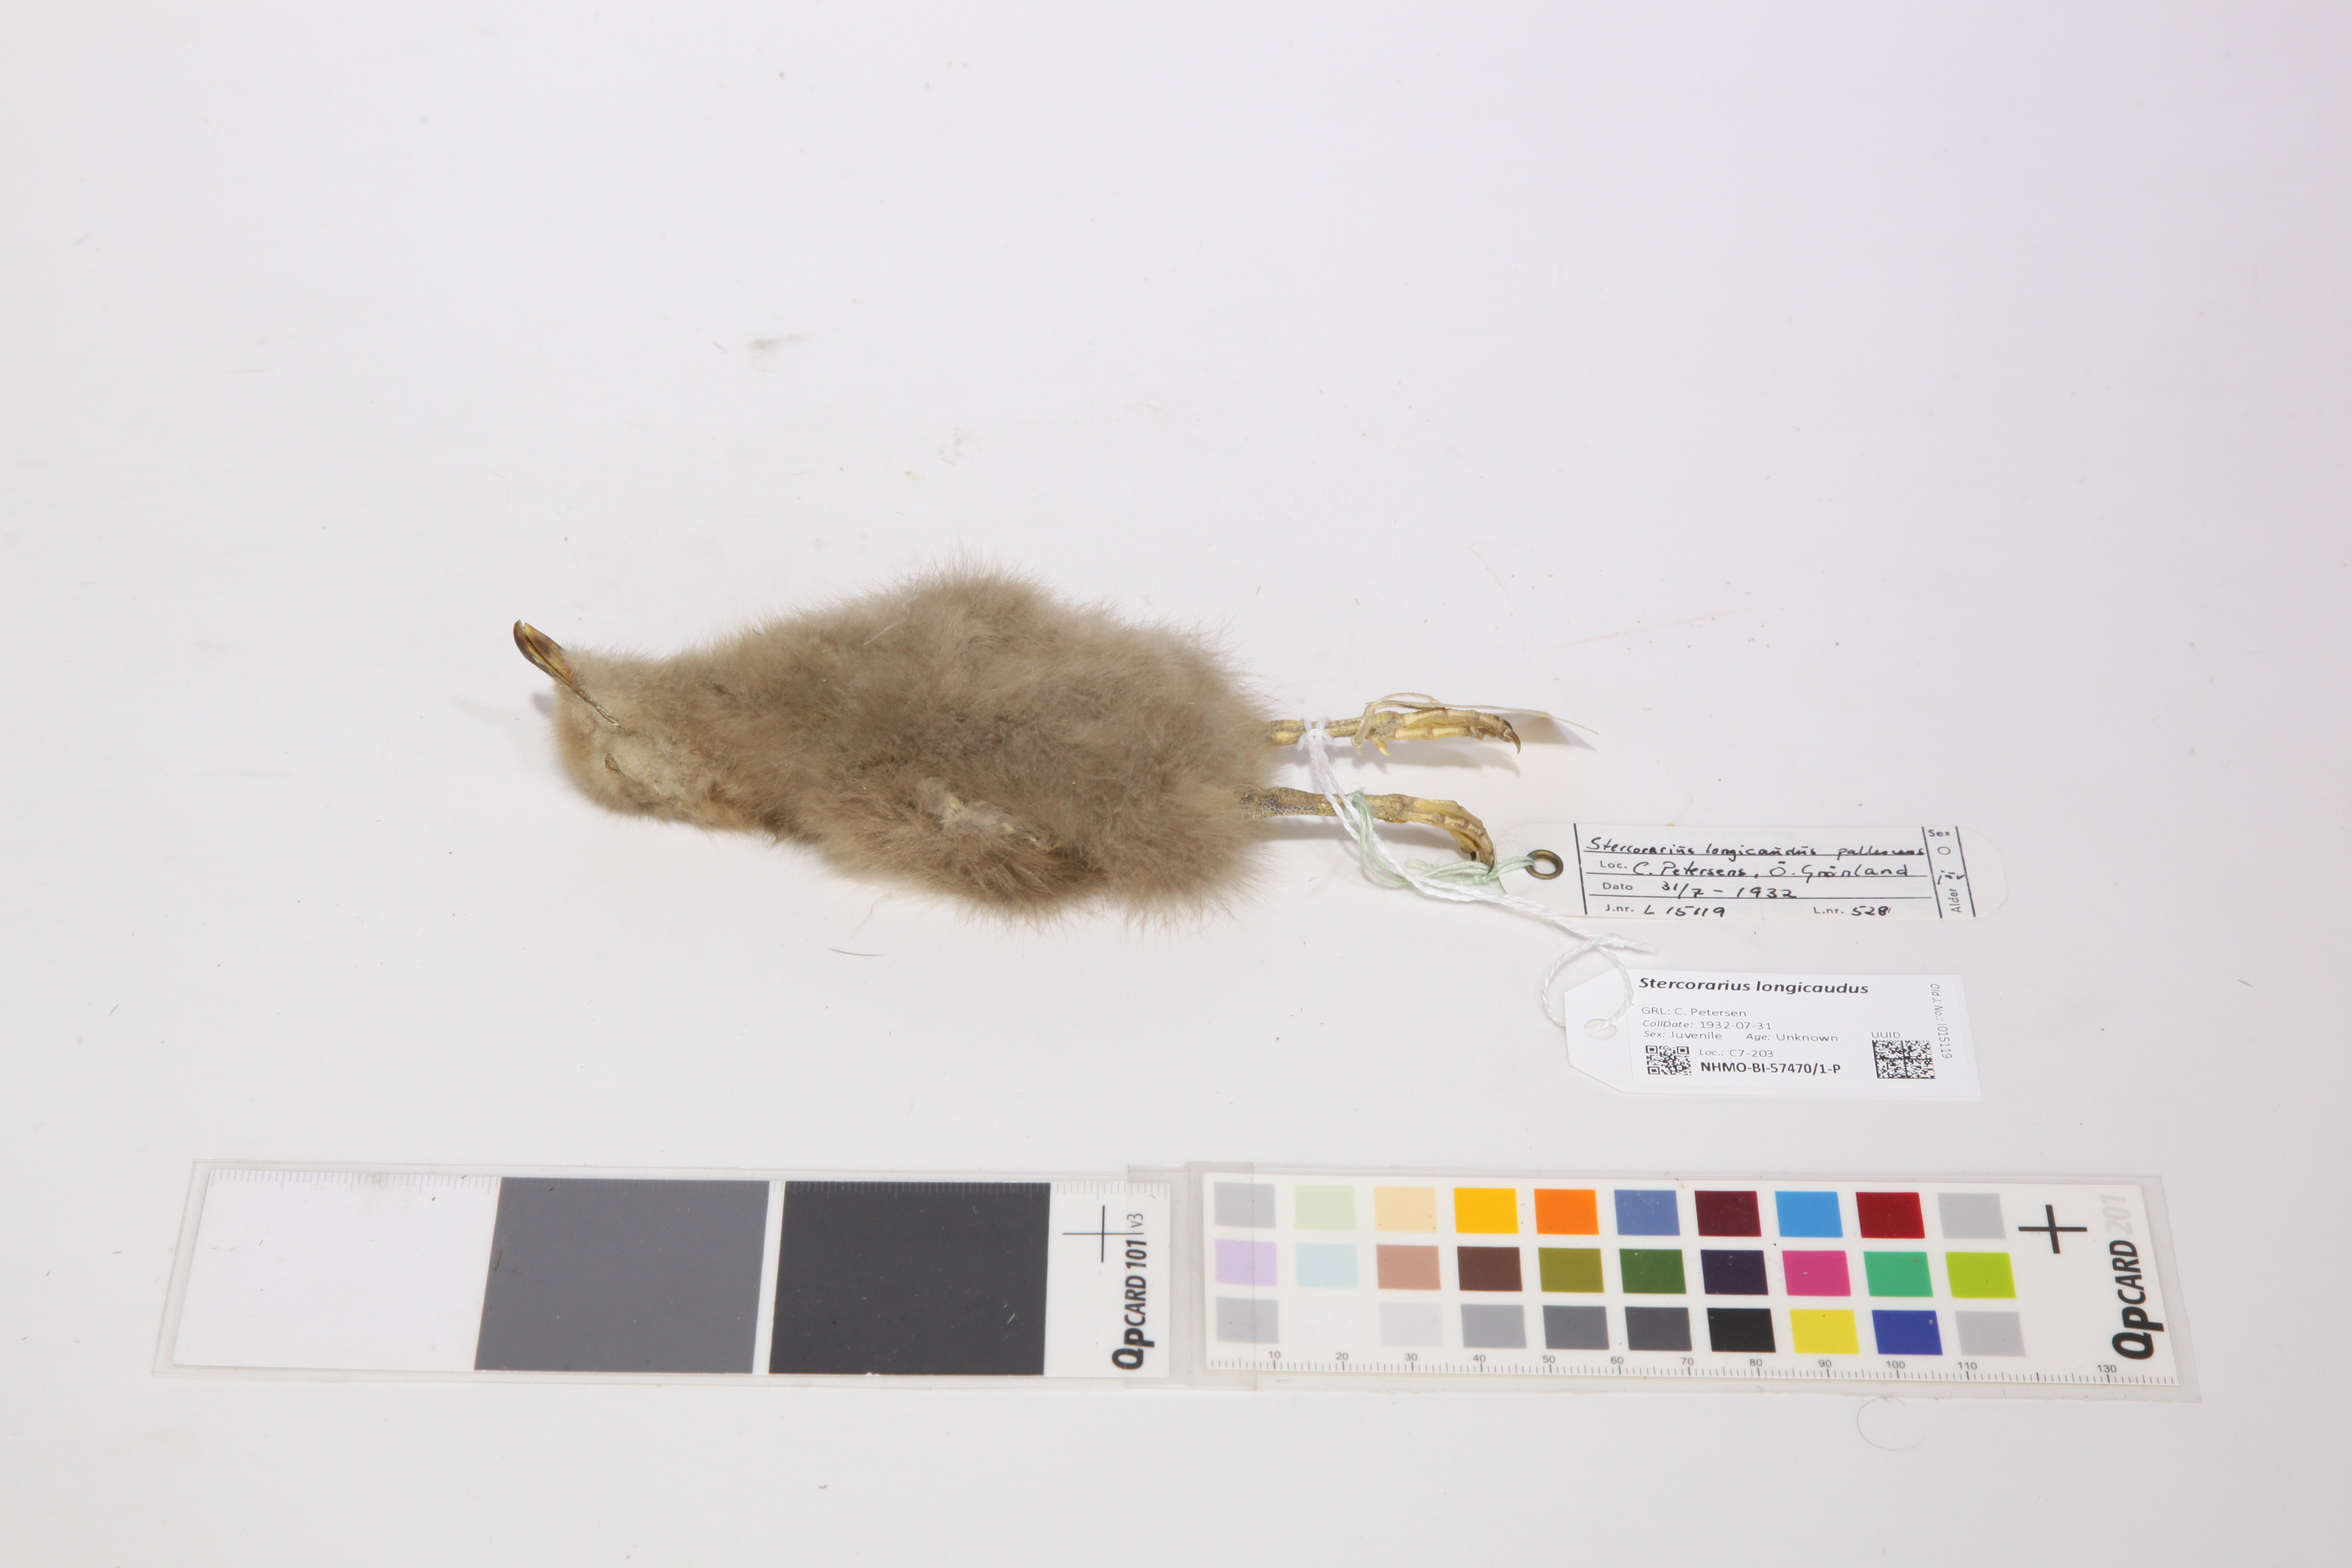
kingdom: Animalia
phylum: Chordata
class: Aves
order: Charadriiformes
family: Stercorariidae
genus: Stercorarius
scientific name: Stercorarius longicaudus
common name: Long-tailed jaeger
